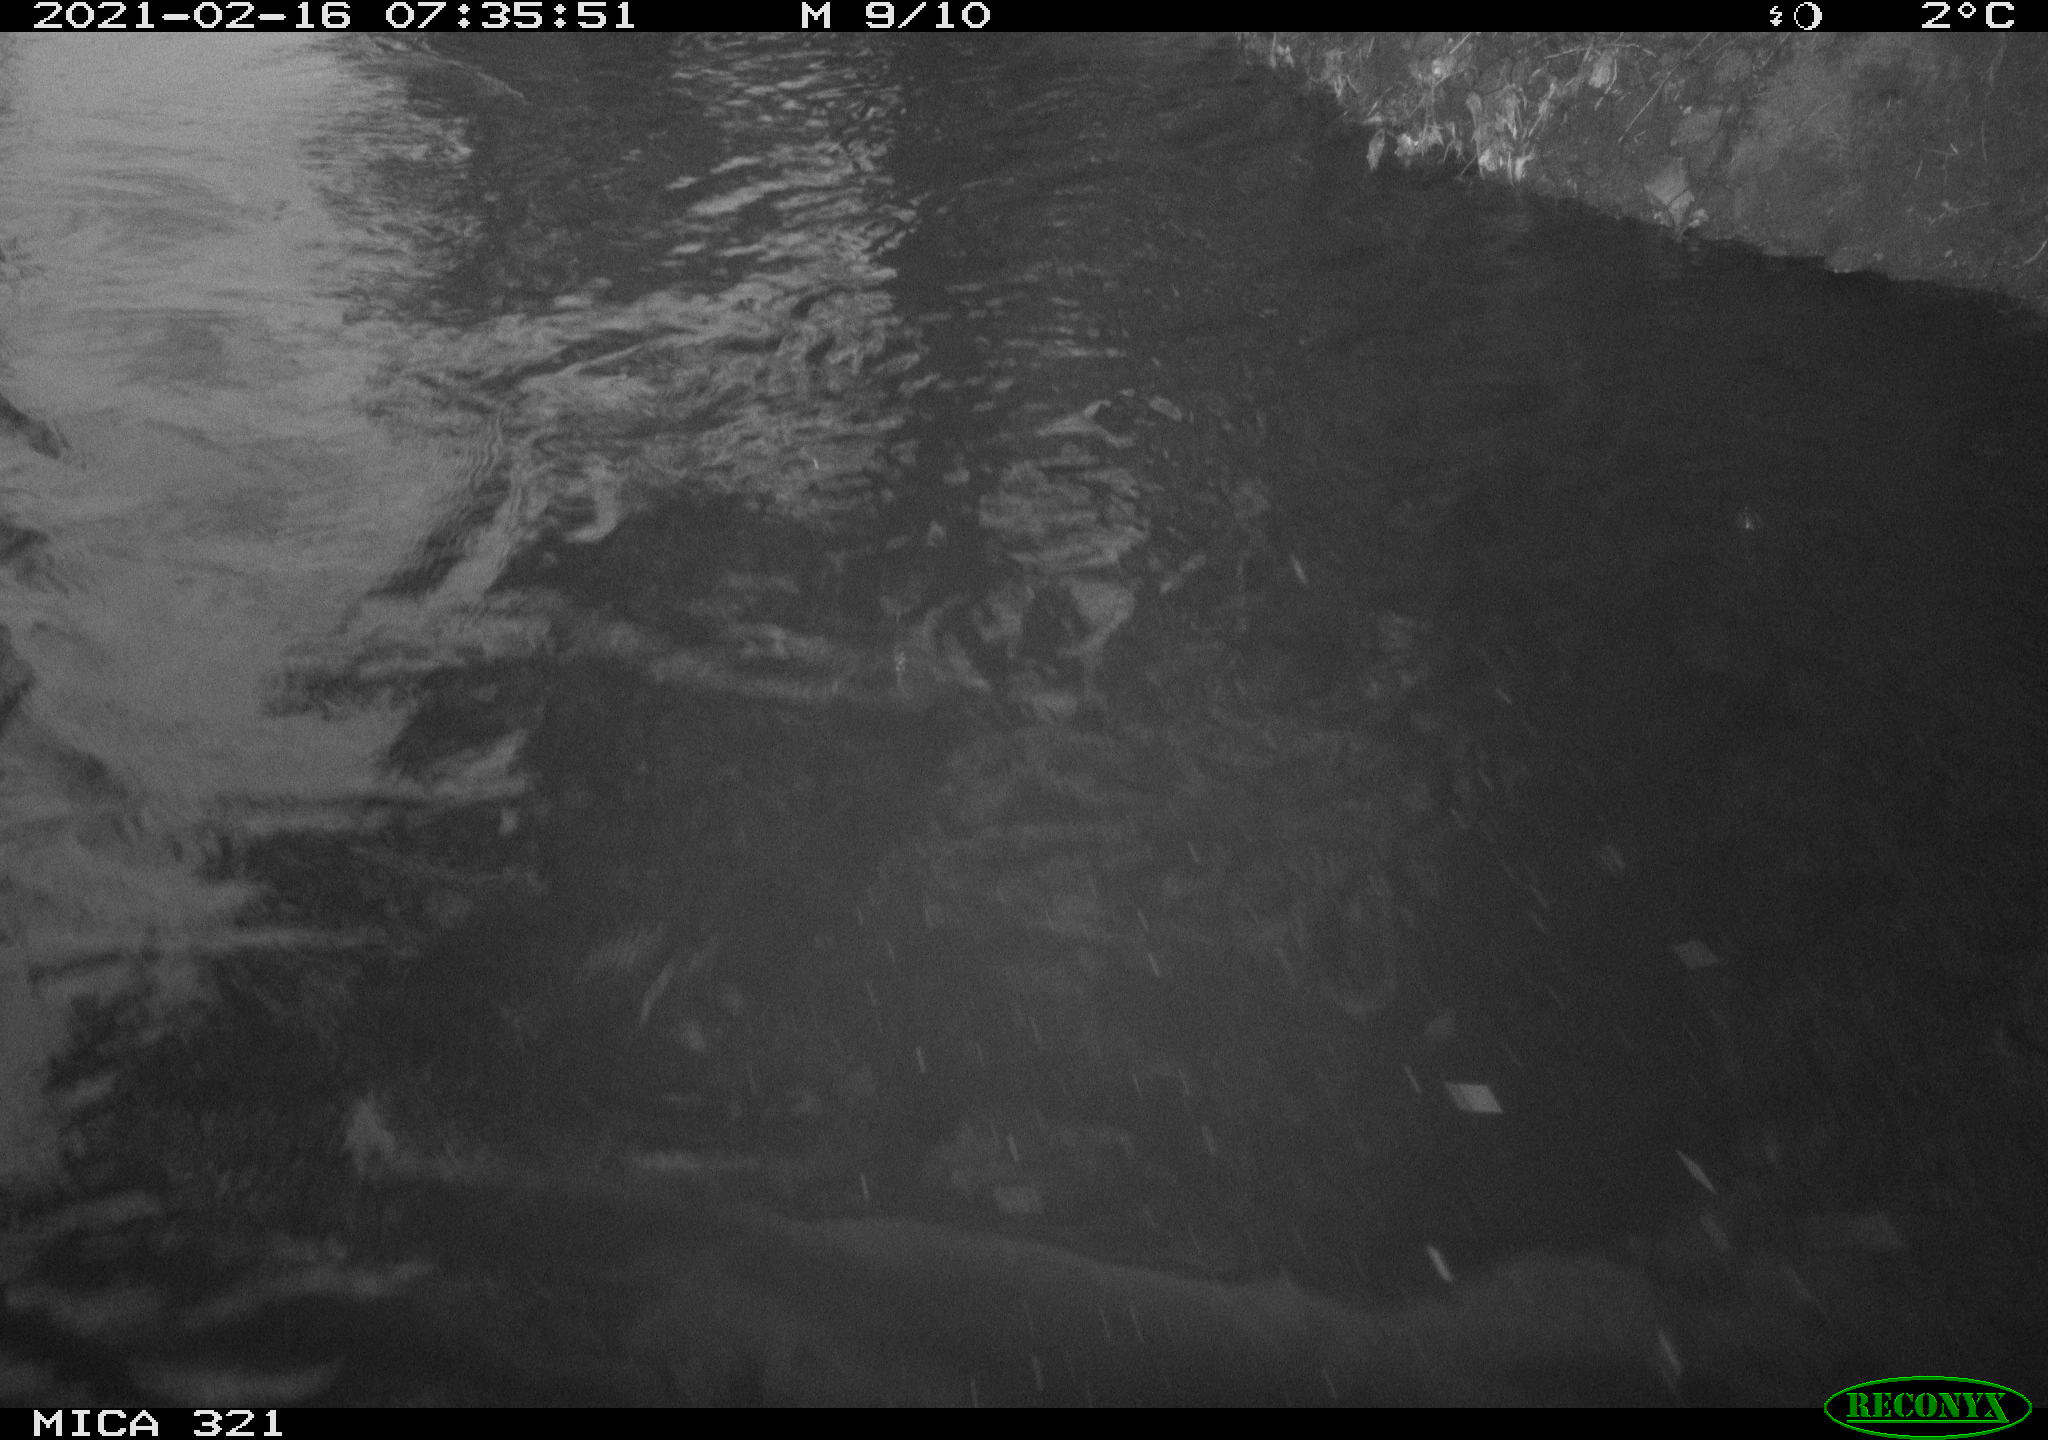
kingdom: Animalia
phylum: Chordata
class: Aves
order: Anseriformes
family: Anatidae
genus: Anas
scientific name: Anas platyrhynchos
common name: Mallard
